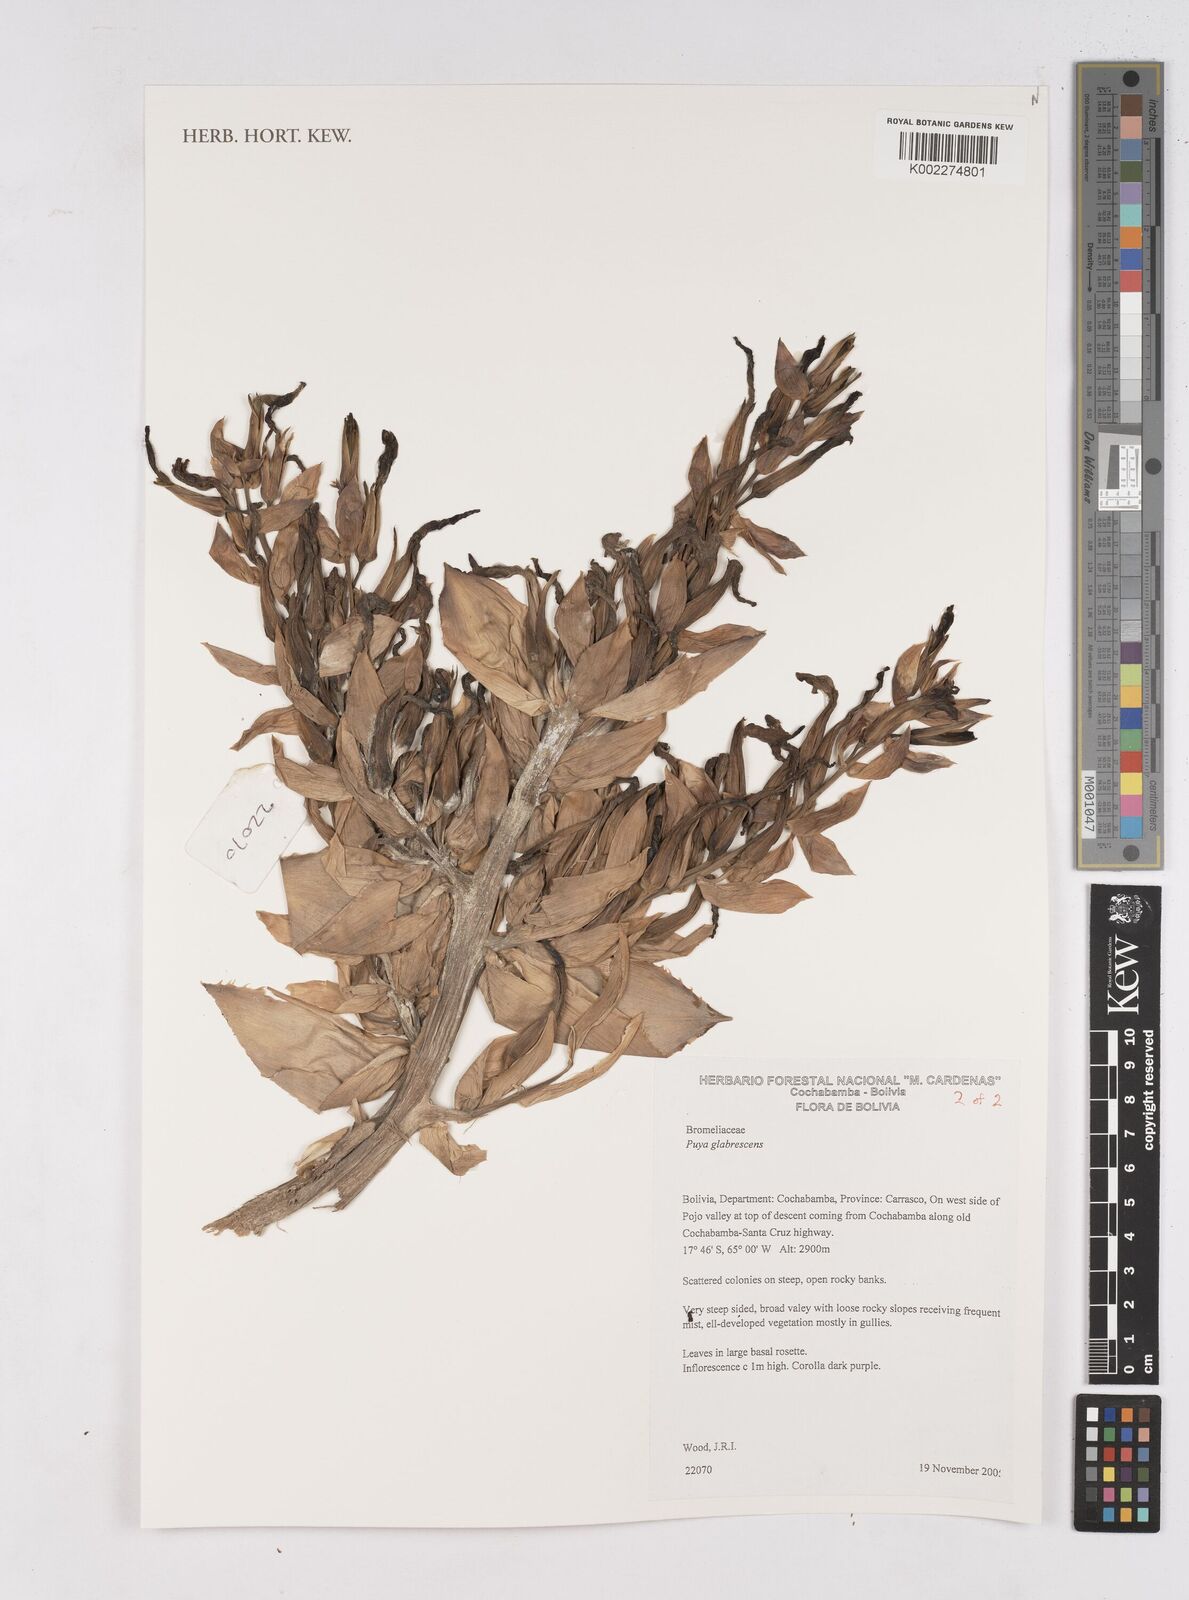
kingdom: Plantae
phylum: Tracheophyta
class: Liliopsida
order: Poales
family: Bromeliaceae
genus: Puya
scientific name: Puya glabrescens
